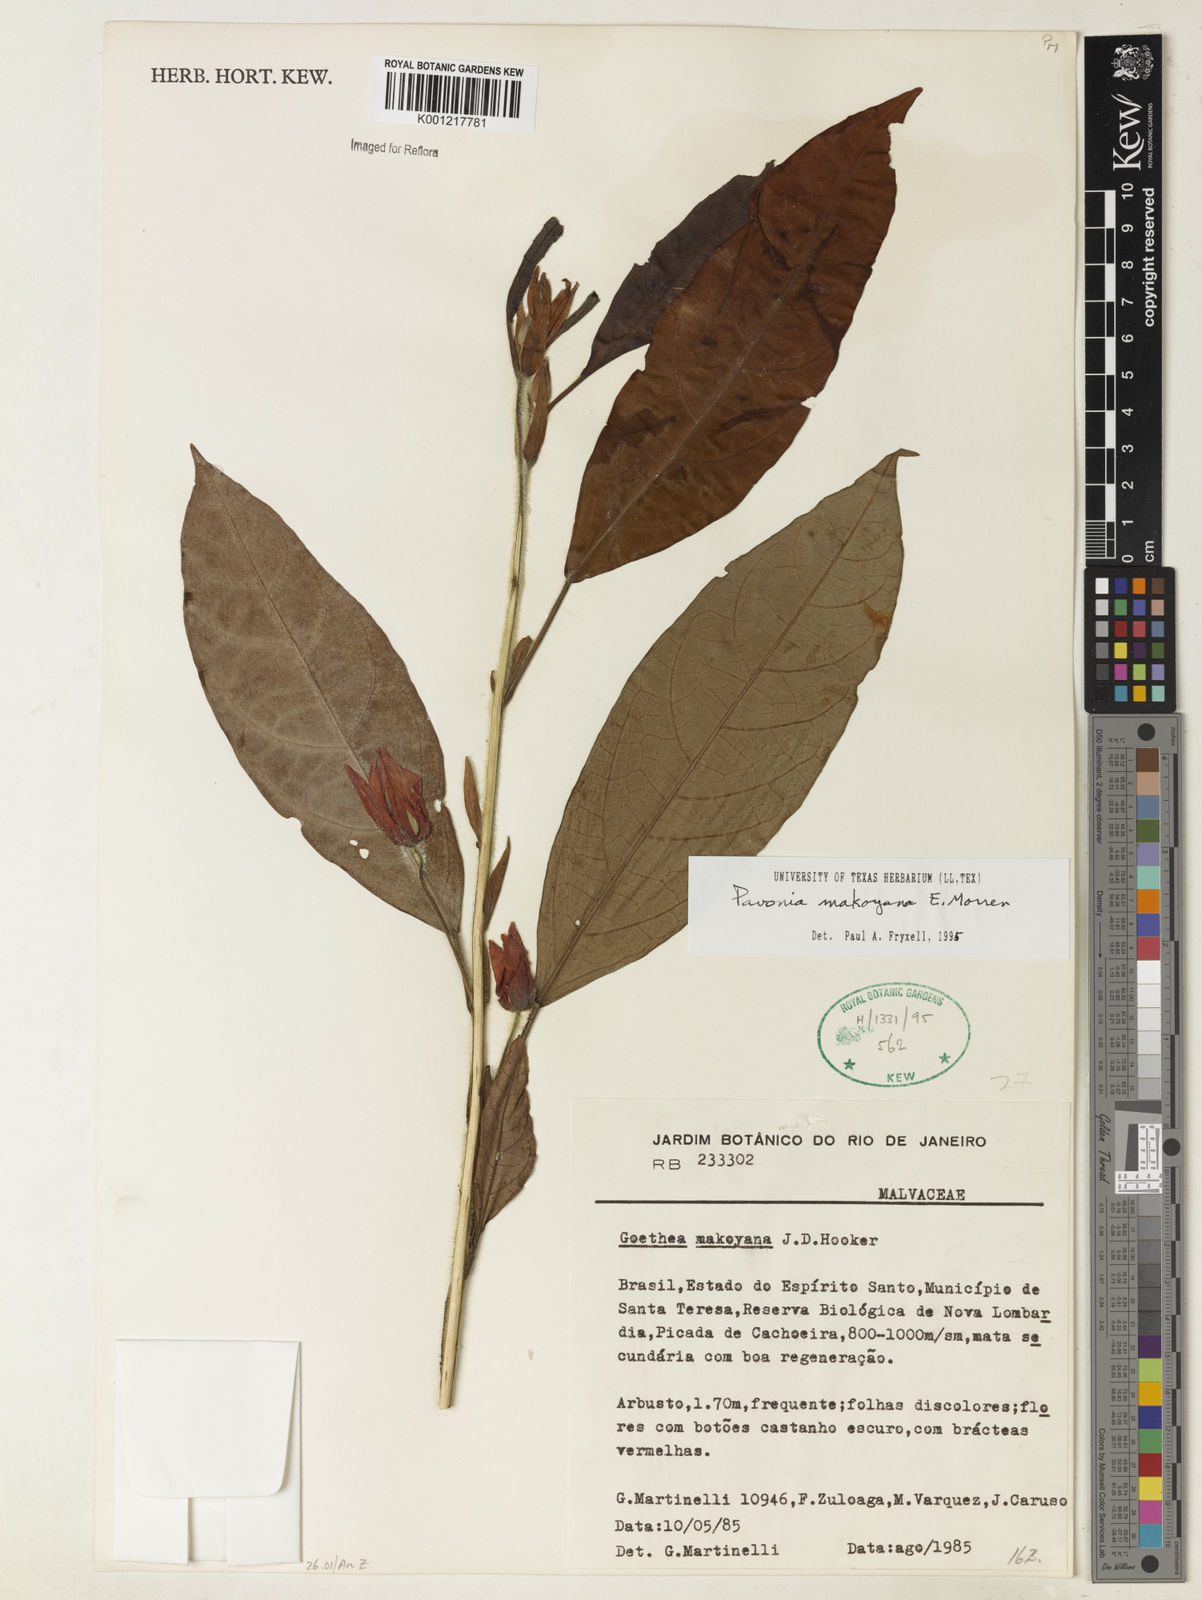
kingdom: Plantae
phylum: Tracheophyta
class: Magnoliopsida
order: Malvales
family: Malvaceae
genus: Pavonia
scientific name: Pavonia makoyana
